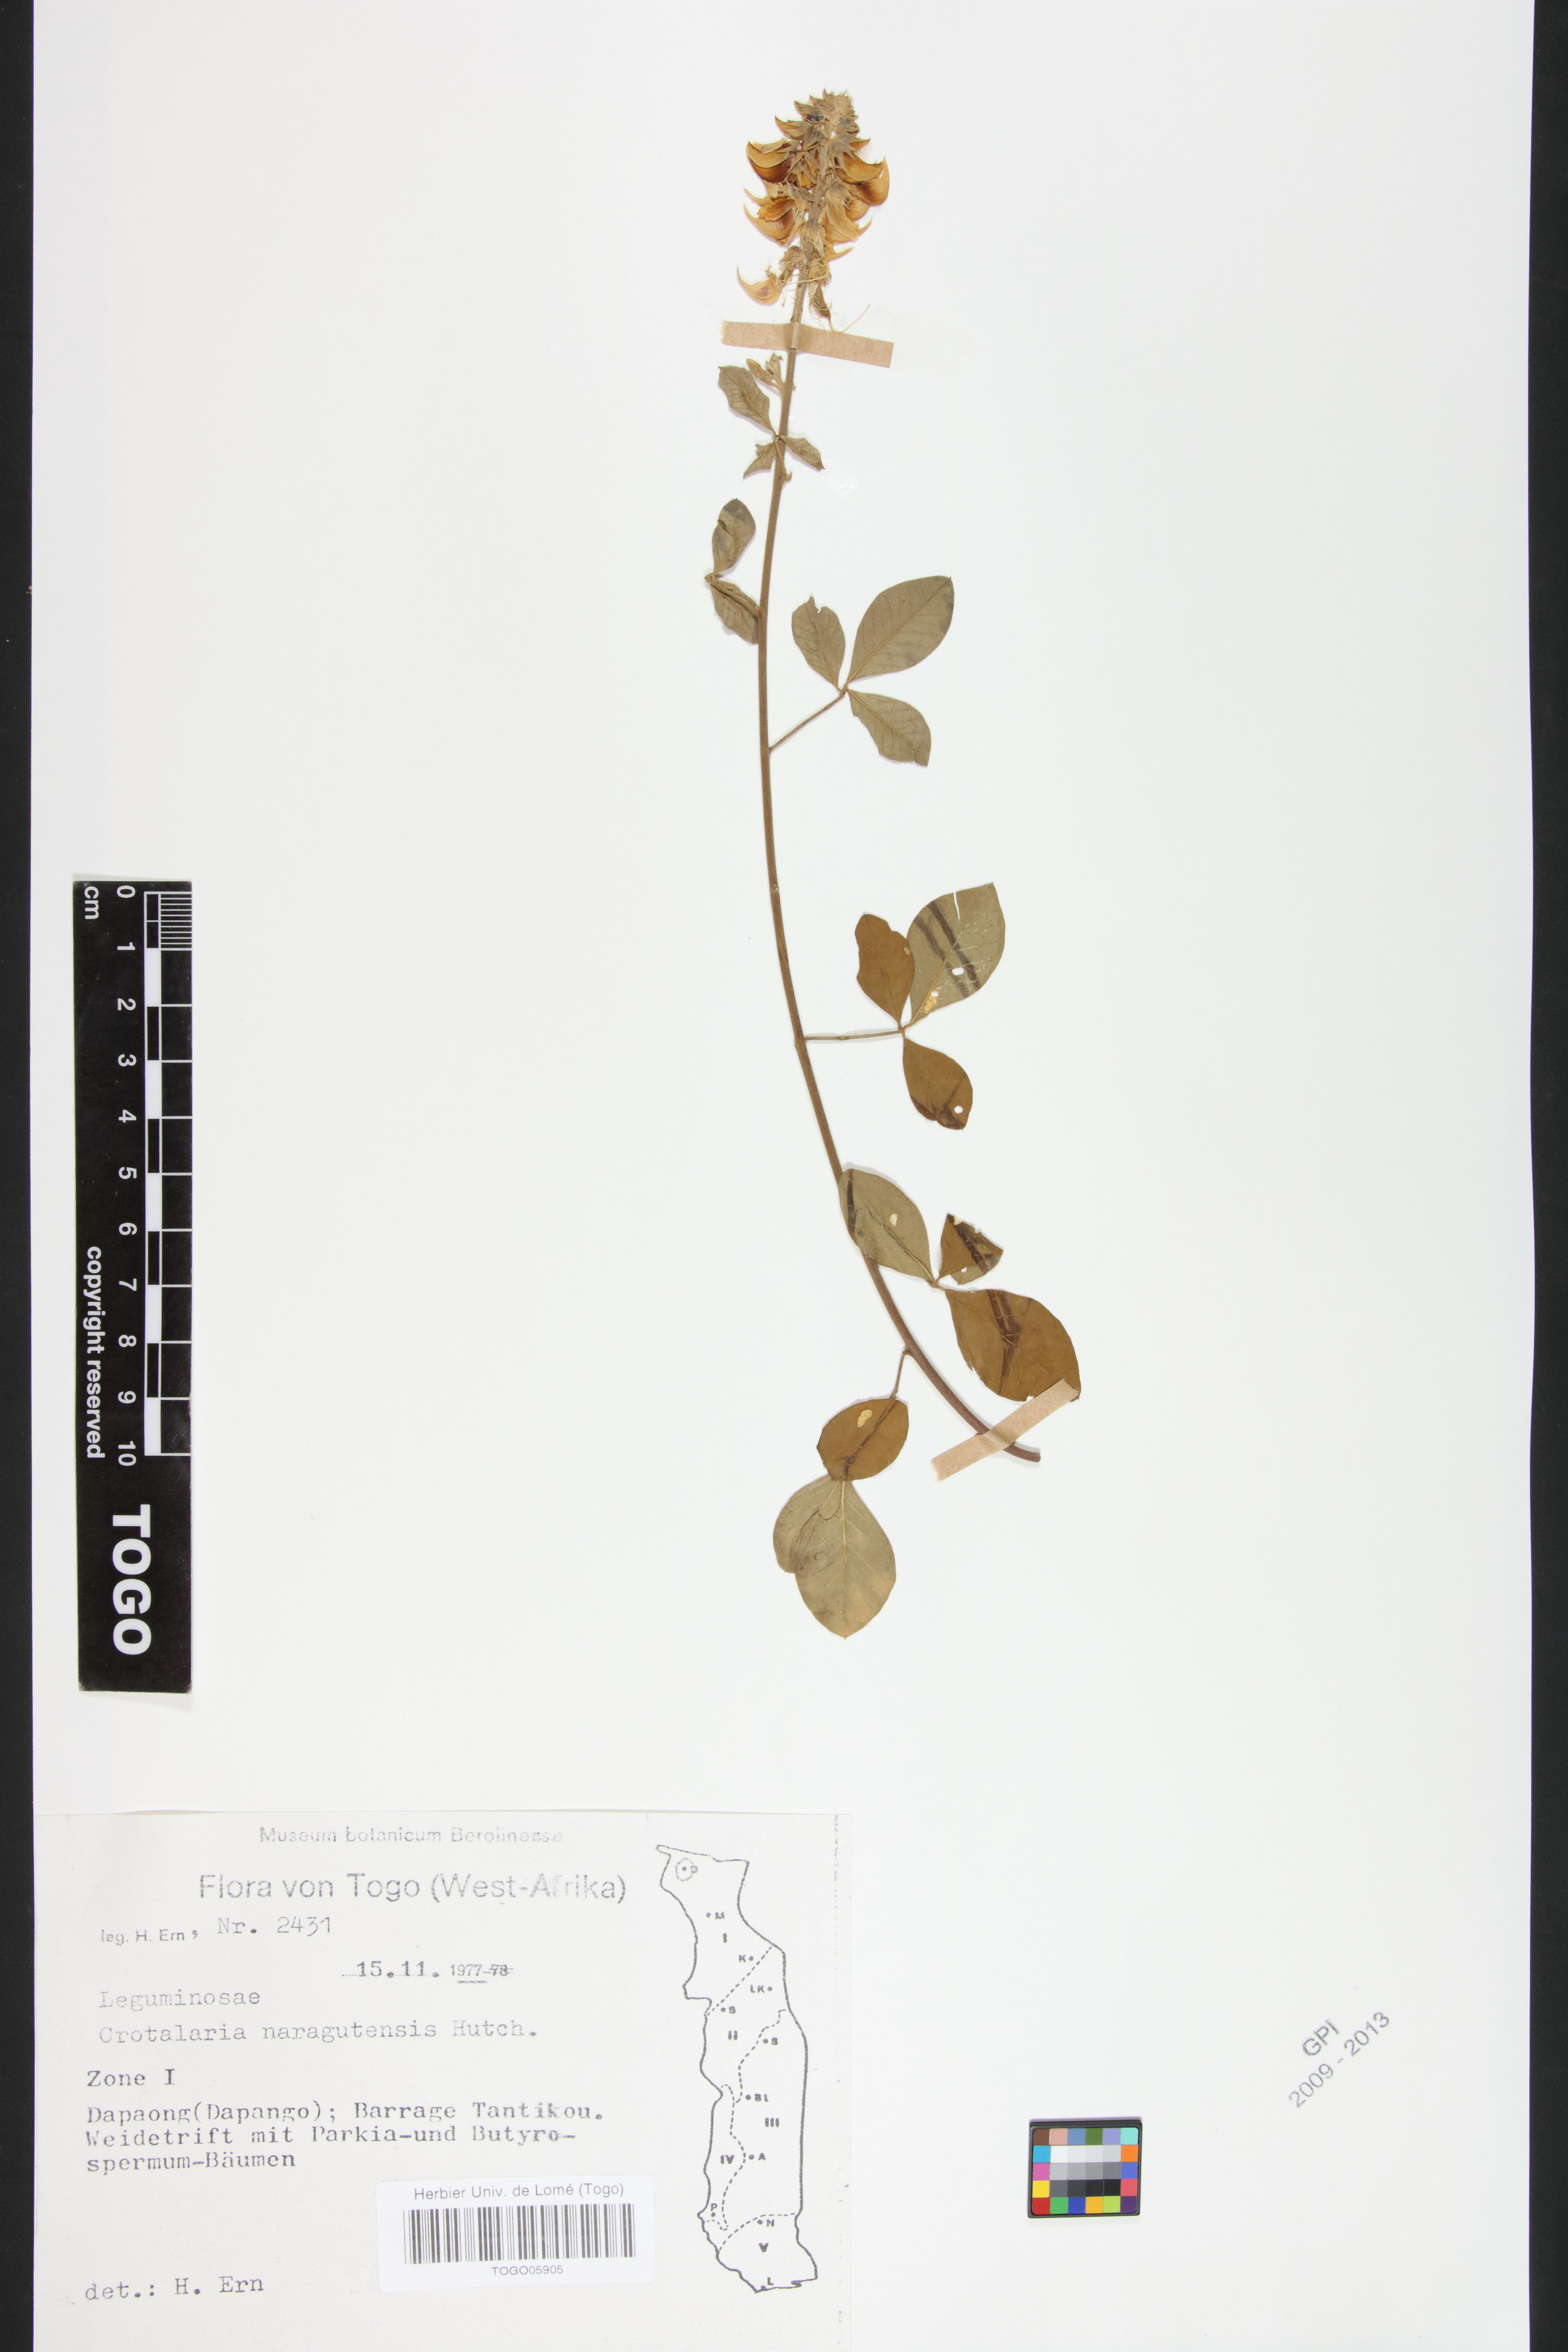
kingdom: Plantae
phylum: Tracheophyta
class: Magnoliopsida
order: Fabales
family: Fabaceae
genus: Crotalaria
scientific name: Crotalaria naragutensis
